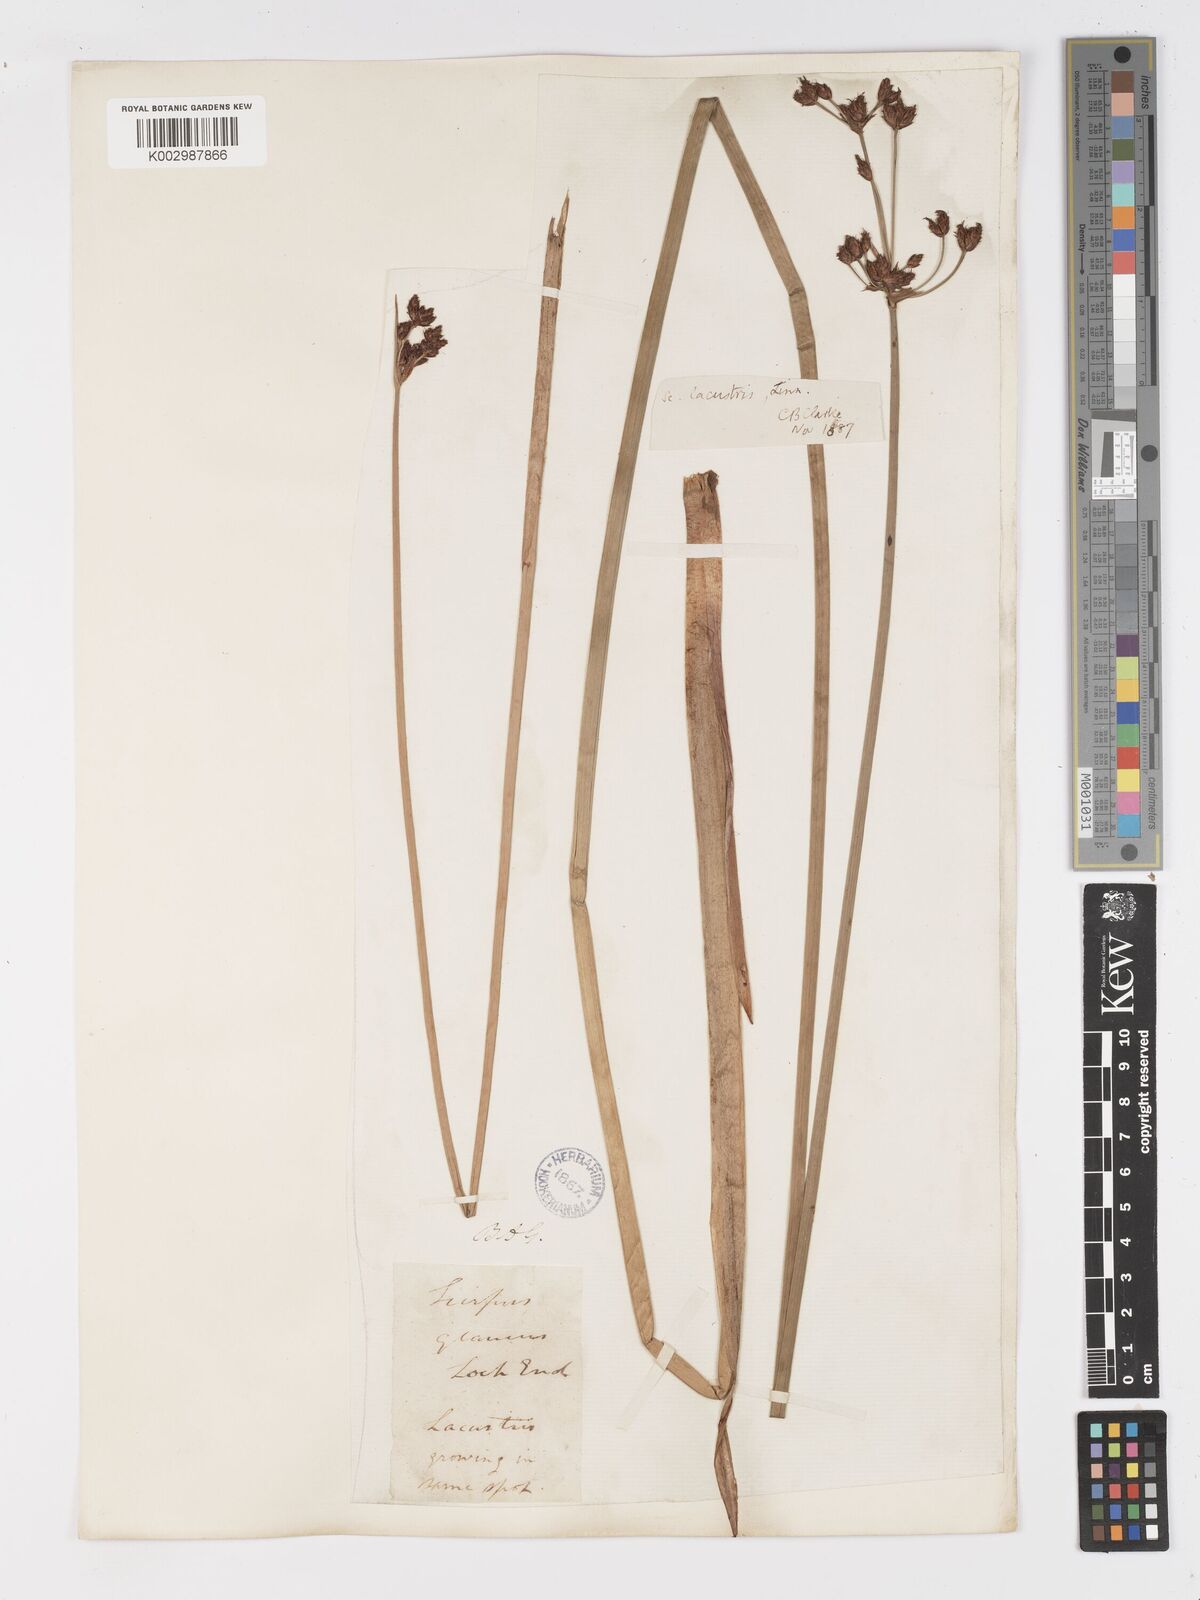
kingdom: Plantae
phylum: Tracheophyta
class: Liliopsida
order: Poales
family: Cyperaceae
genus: Schoenoplectus
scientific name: Schoenoplectus tabernaemontani
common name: Grey club-rush
